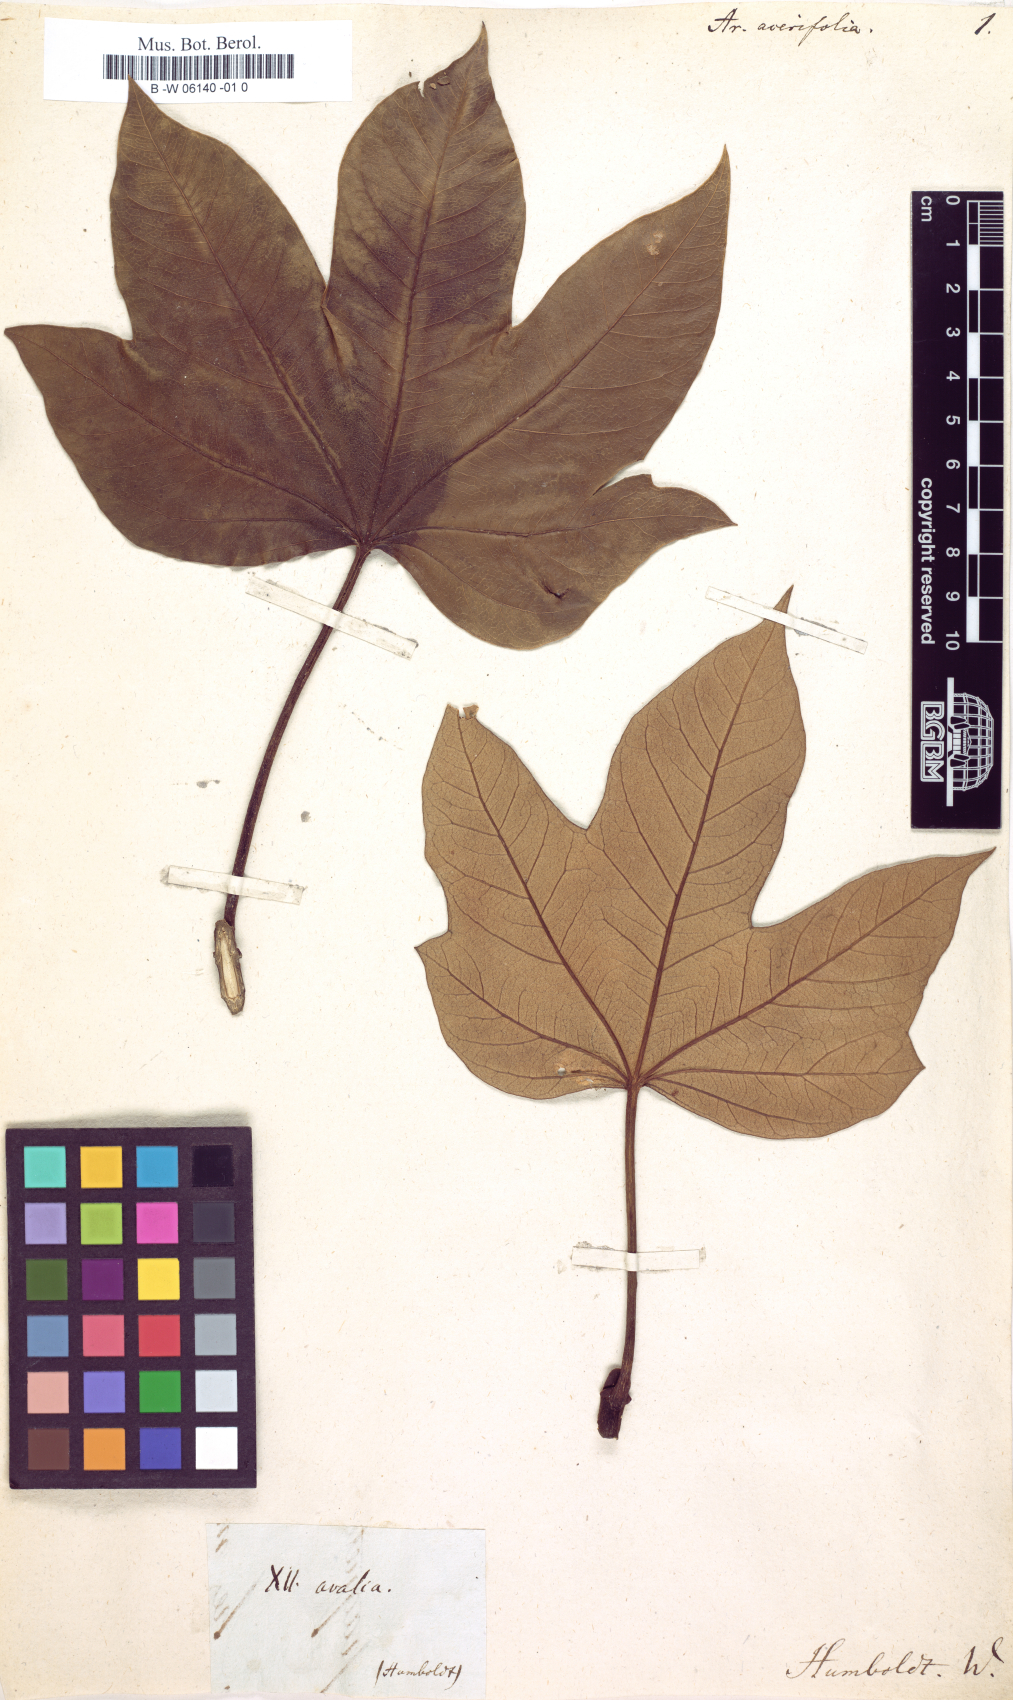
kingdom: Plantae
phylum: Tracheophyta
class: Magnoliopsida
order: Apiales
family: Araliaceae
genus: Oreopanax
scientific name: Oreopanax acerifolius
